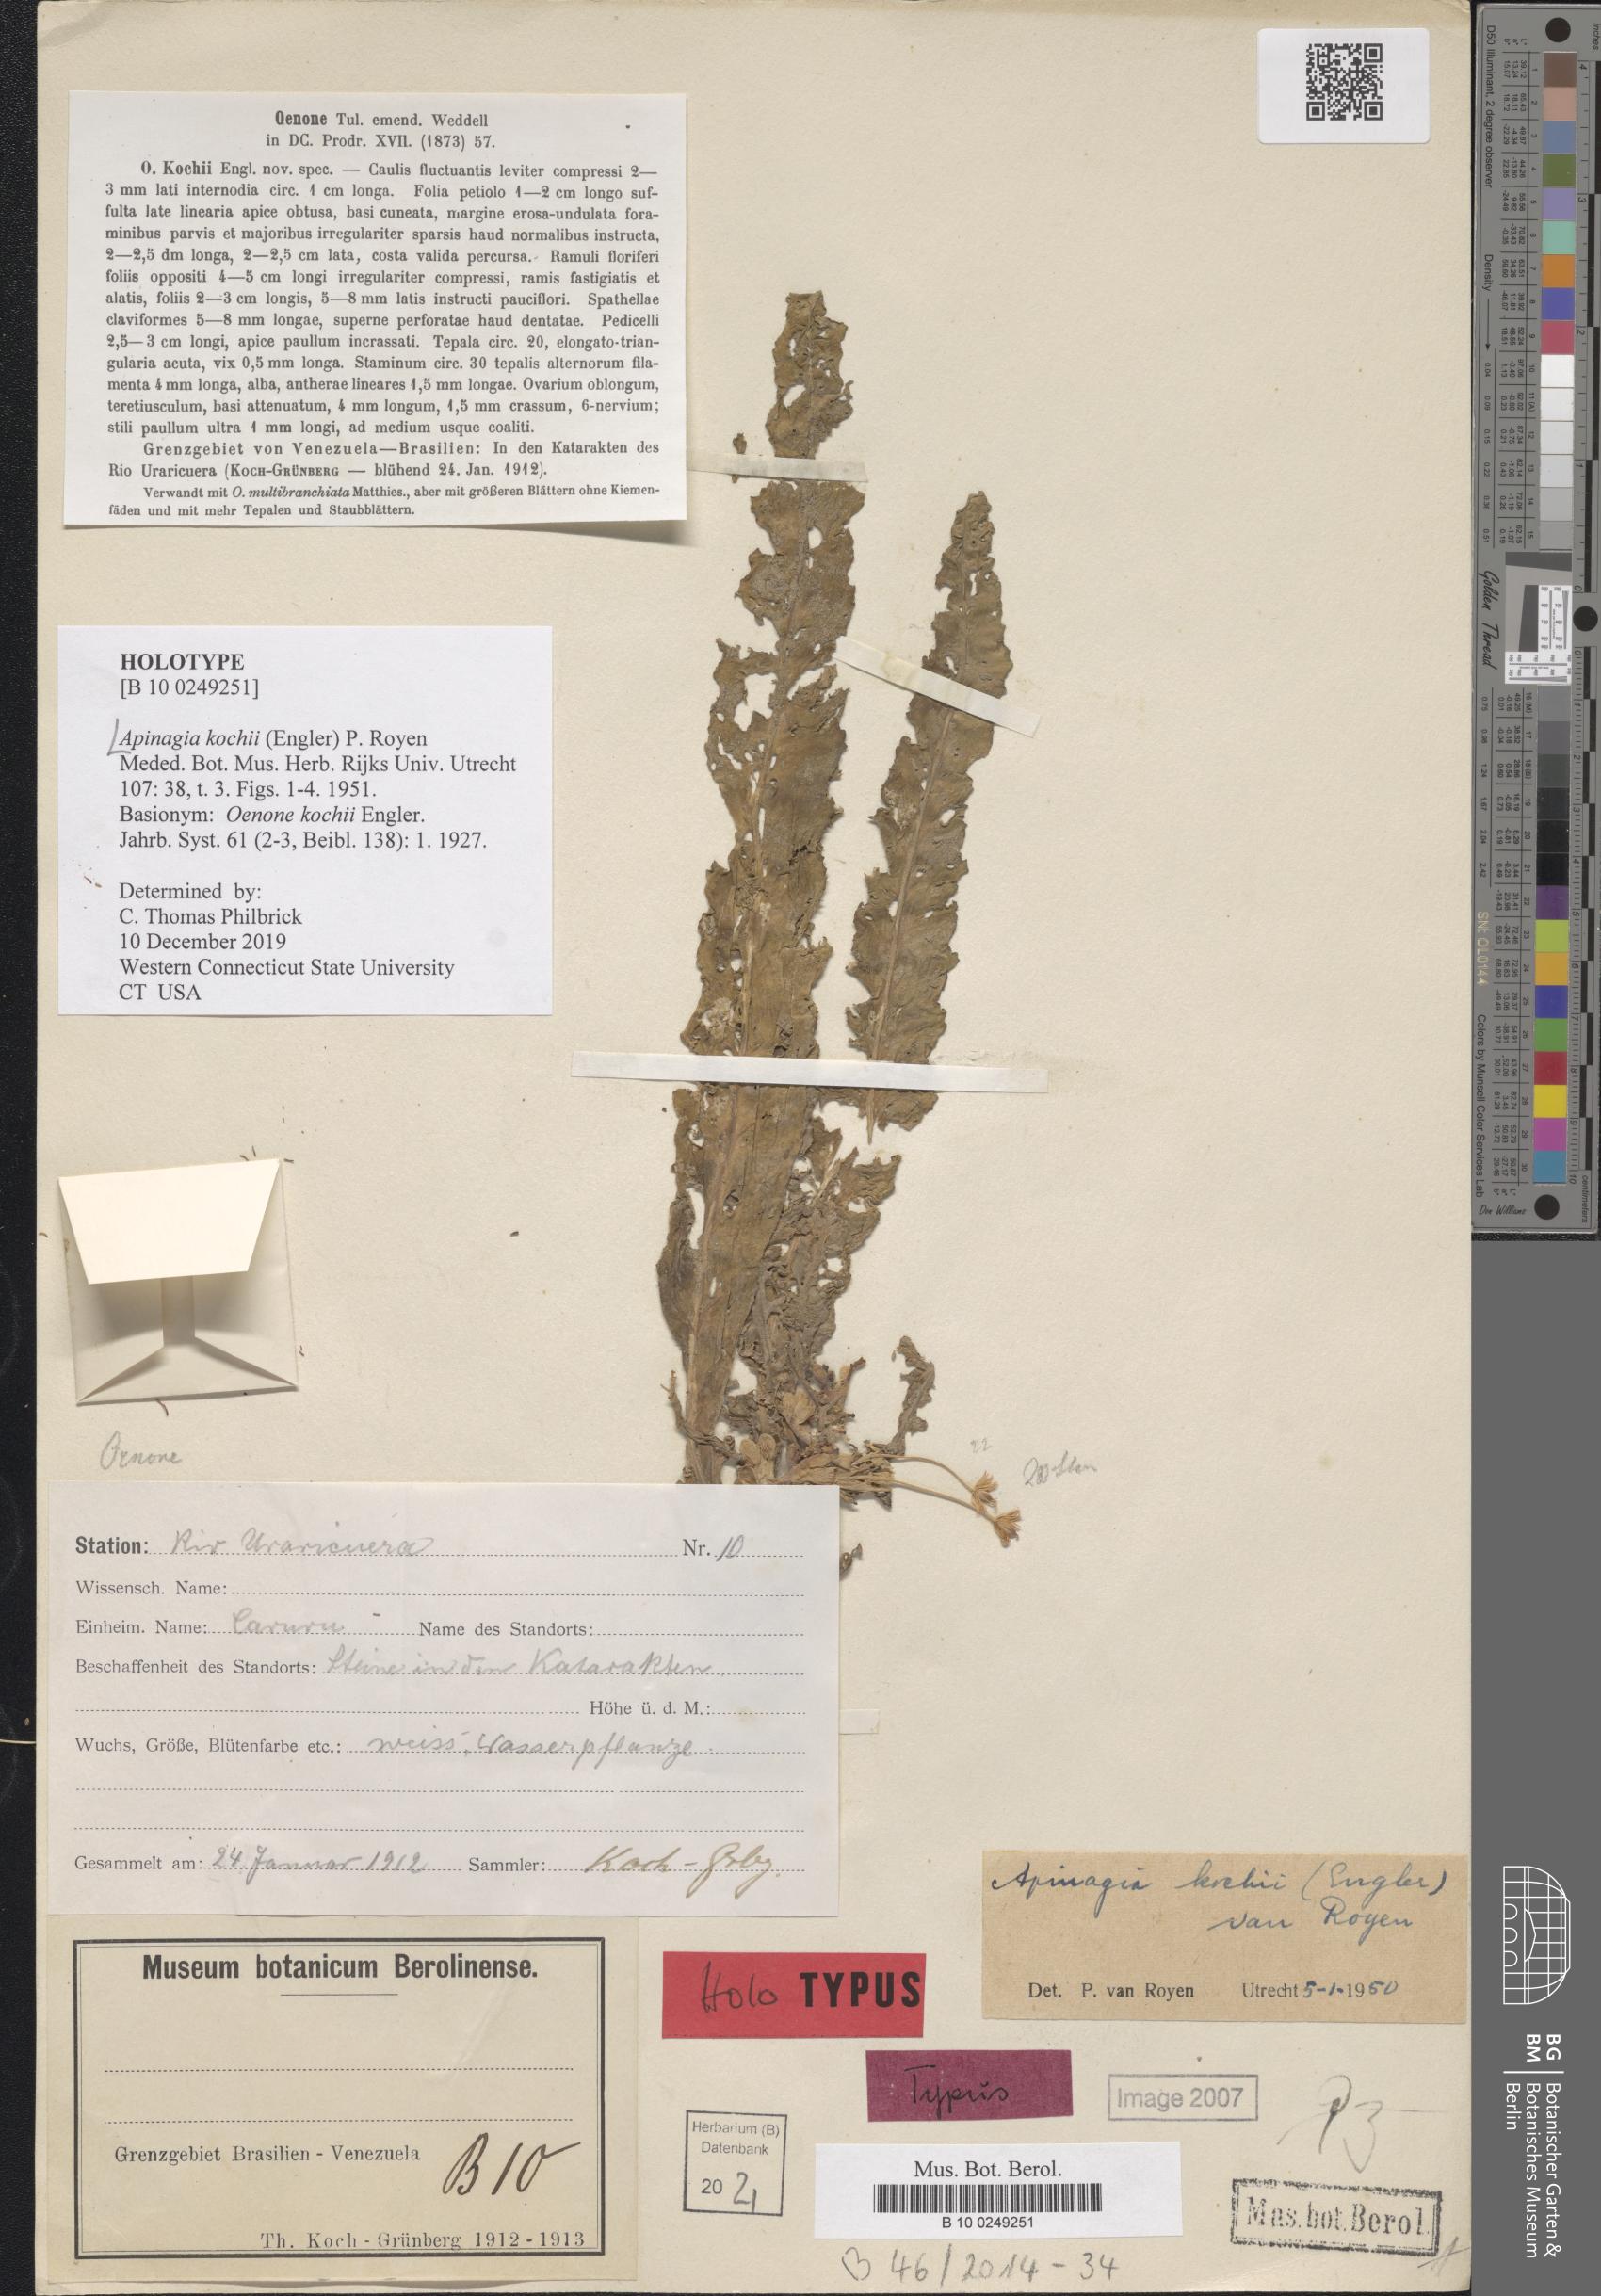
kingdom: Plantae
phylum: Tracheophyta
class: Magnoliopsida
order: Malpighiales
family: Podostemaceae
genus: Apinagia
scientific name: Apinagia kochii
